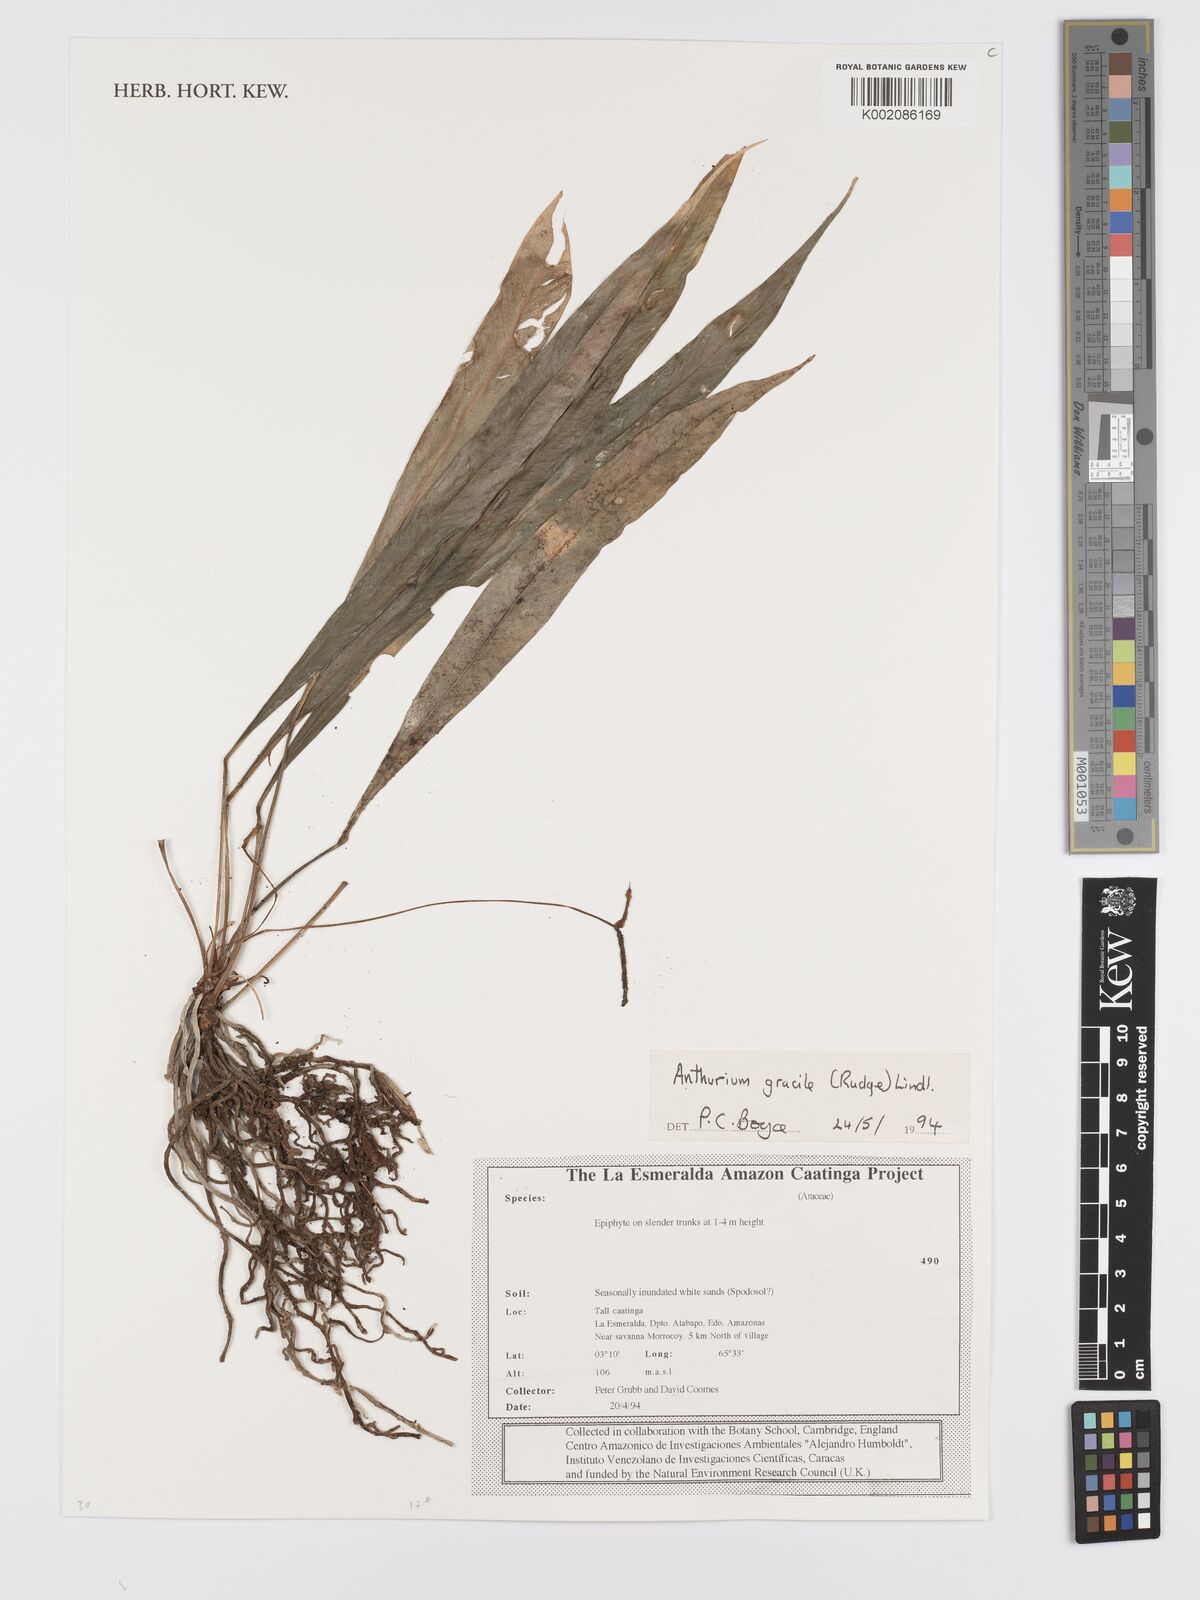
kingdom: Plantae
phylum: Tracheophyta
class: Liliopsida
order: Alismatales
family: Araceae
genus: Anthurium
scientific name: Anthurium gracile
